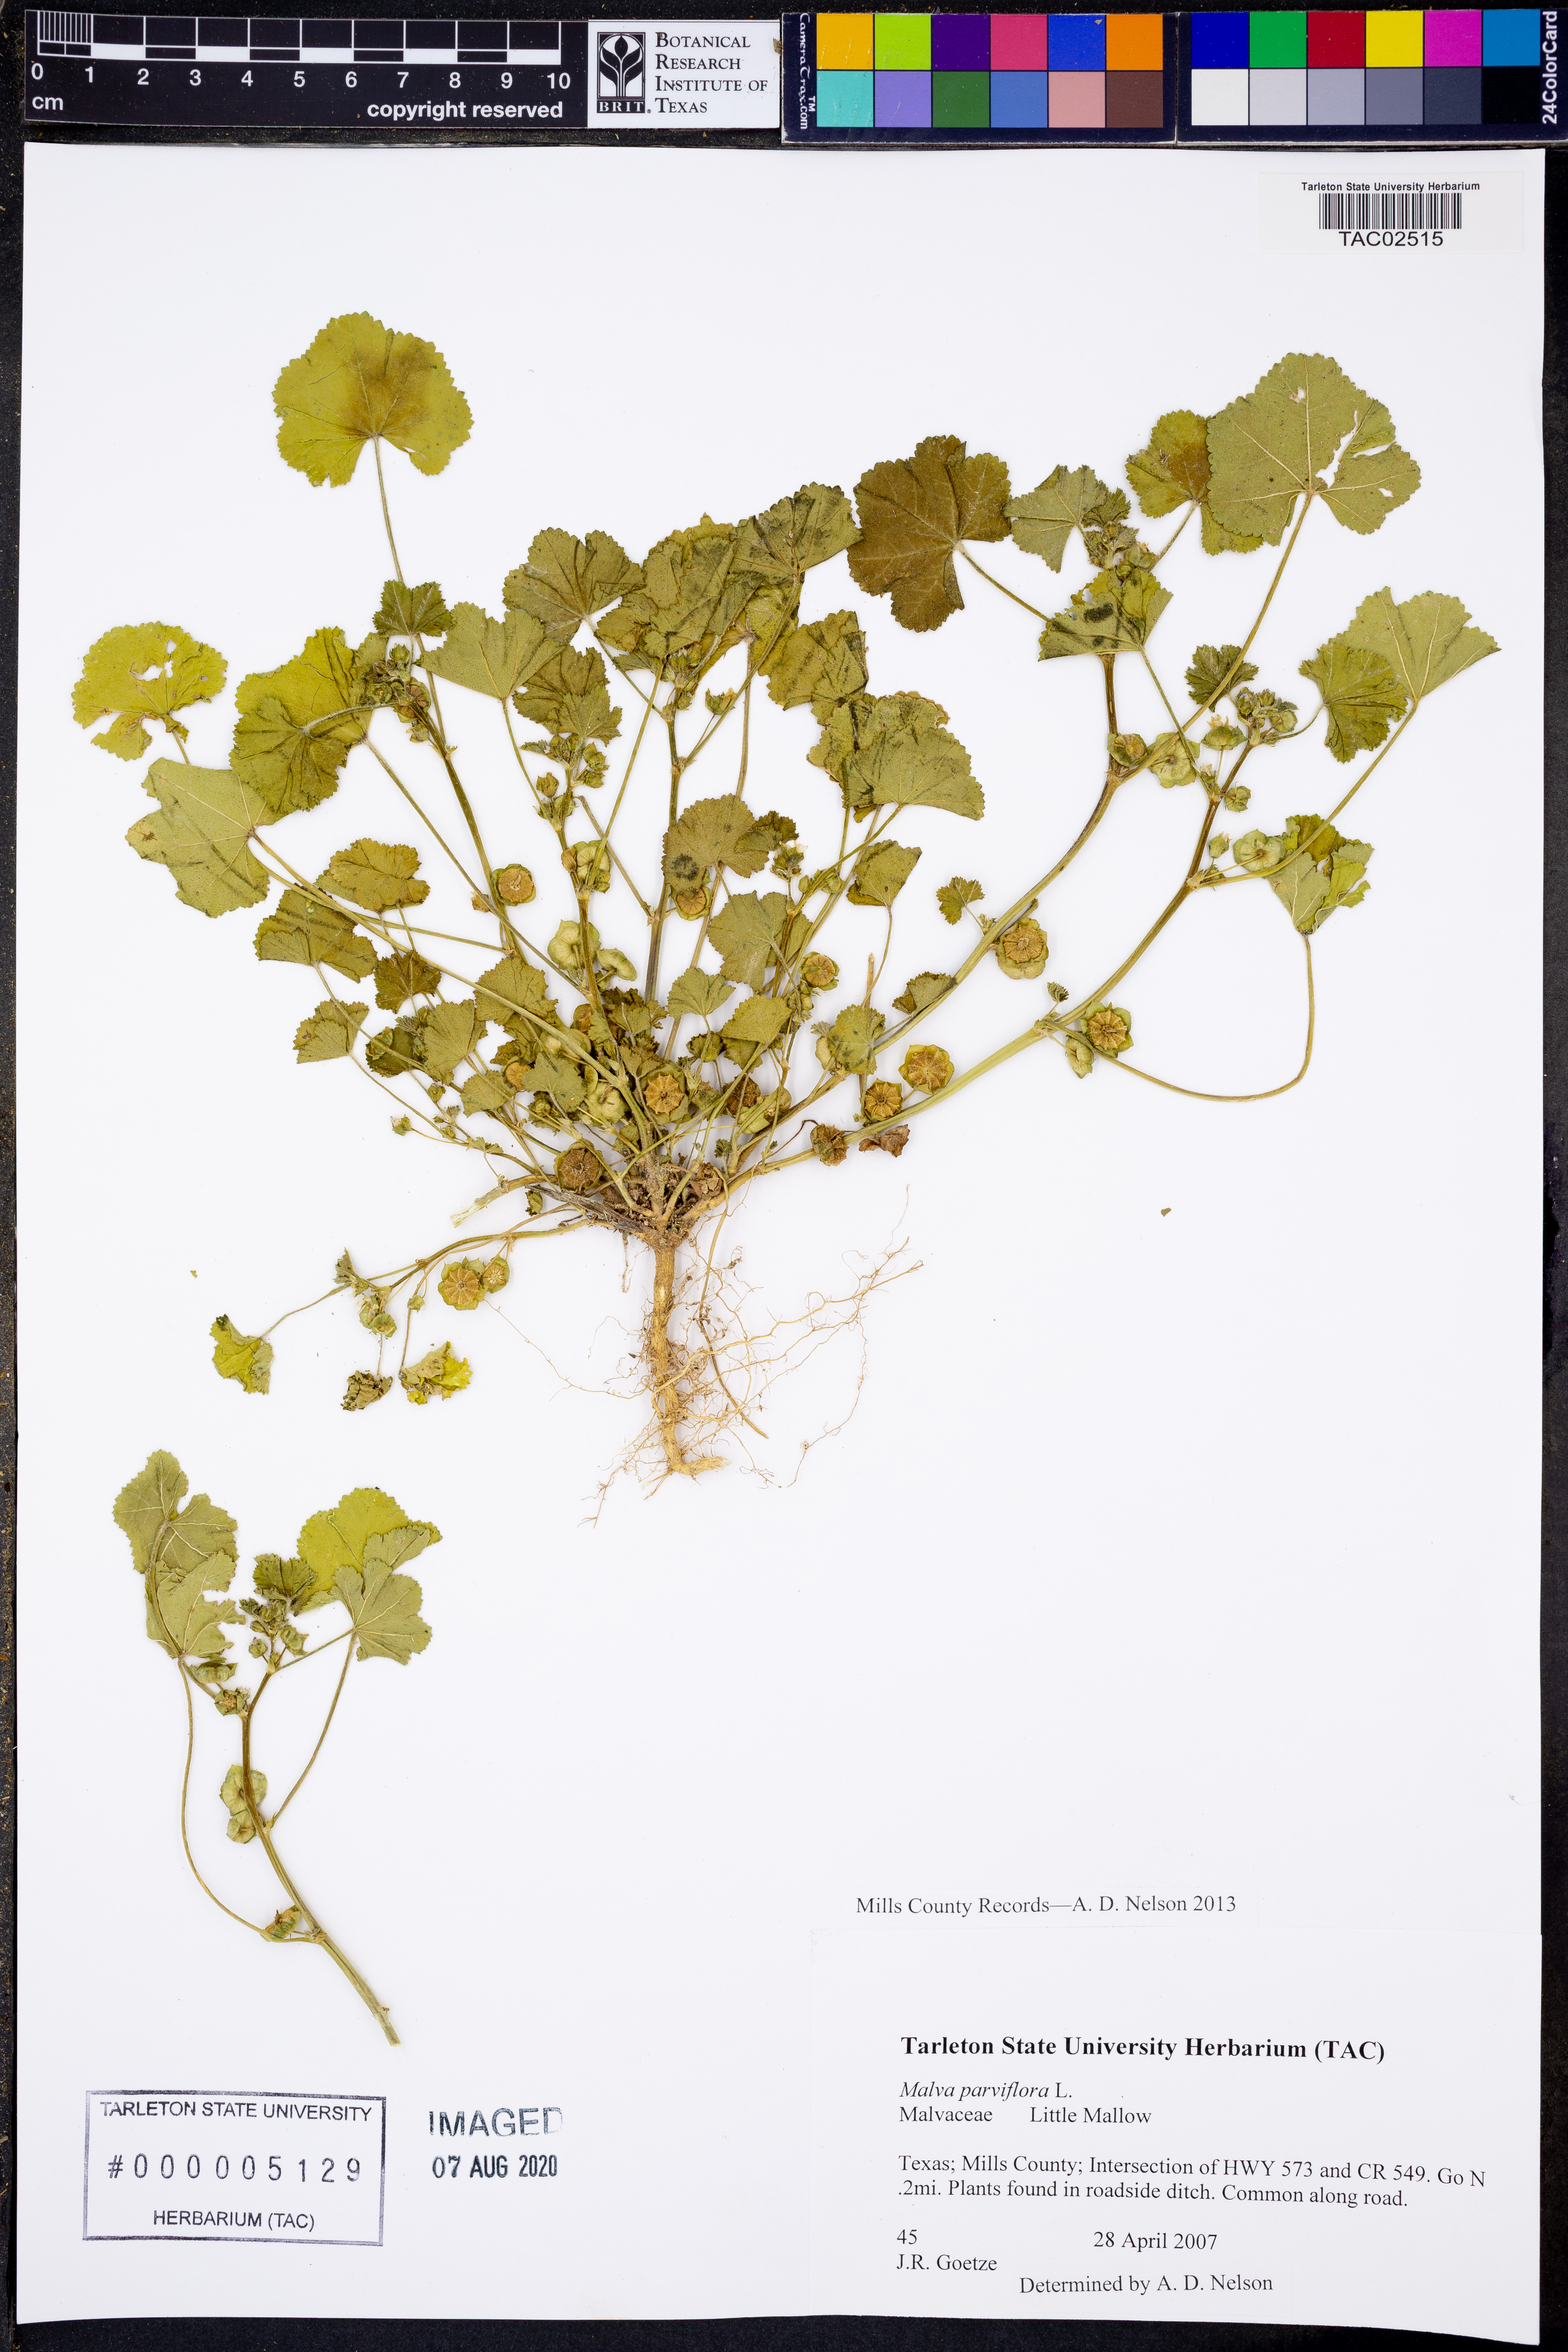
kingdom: Plantae
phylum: Tracheophyta
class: Magnoliopsida
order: Malvales
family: Malvaceae
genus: Malva
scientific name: Malva parviflora
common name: Least mallow
